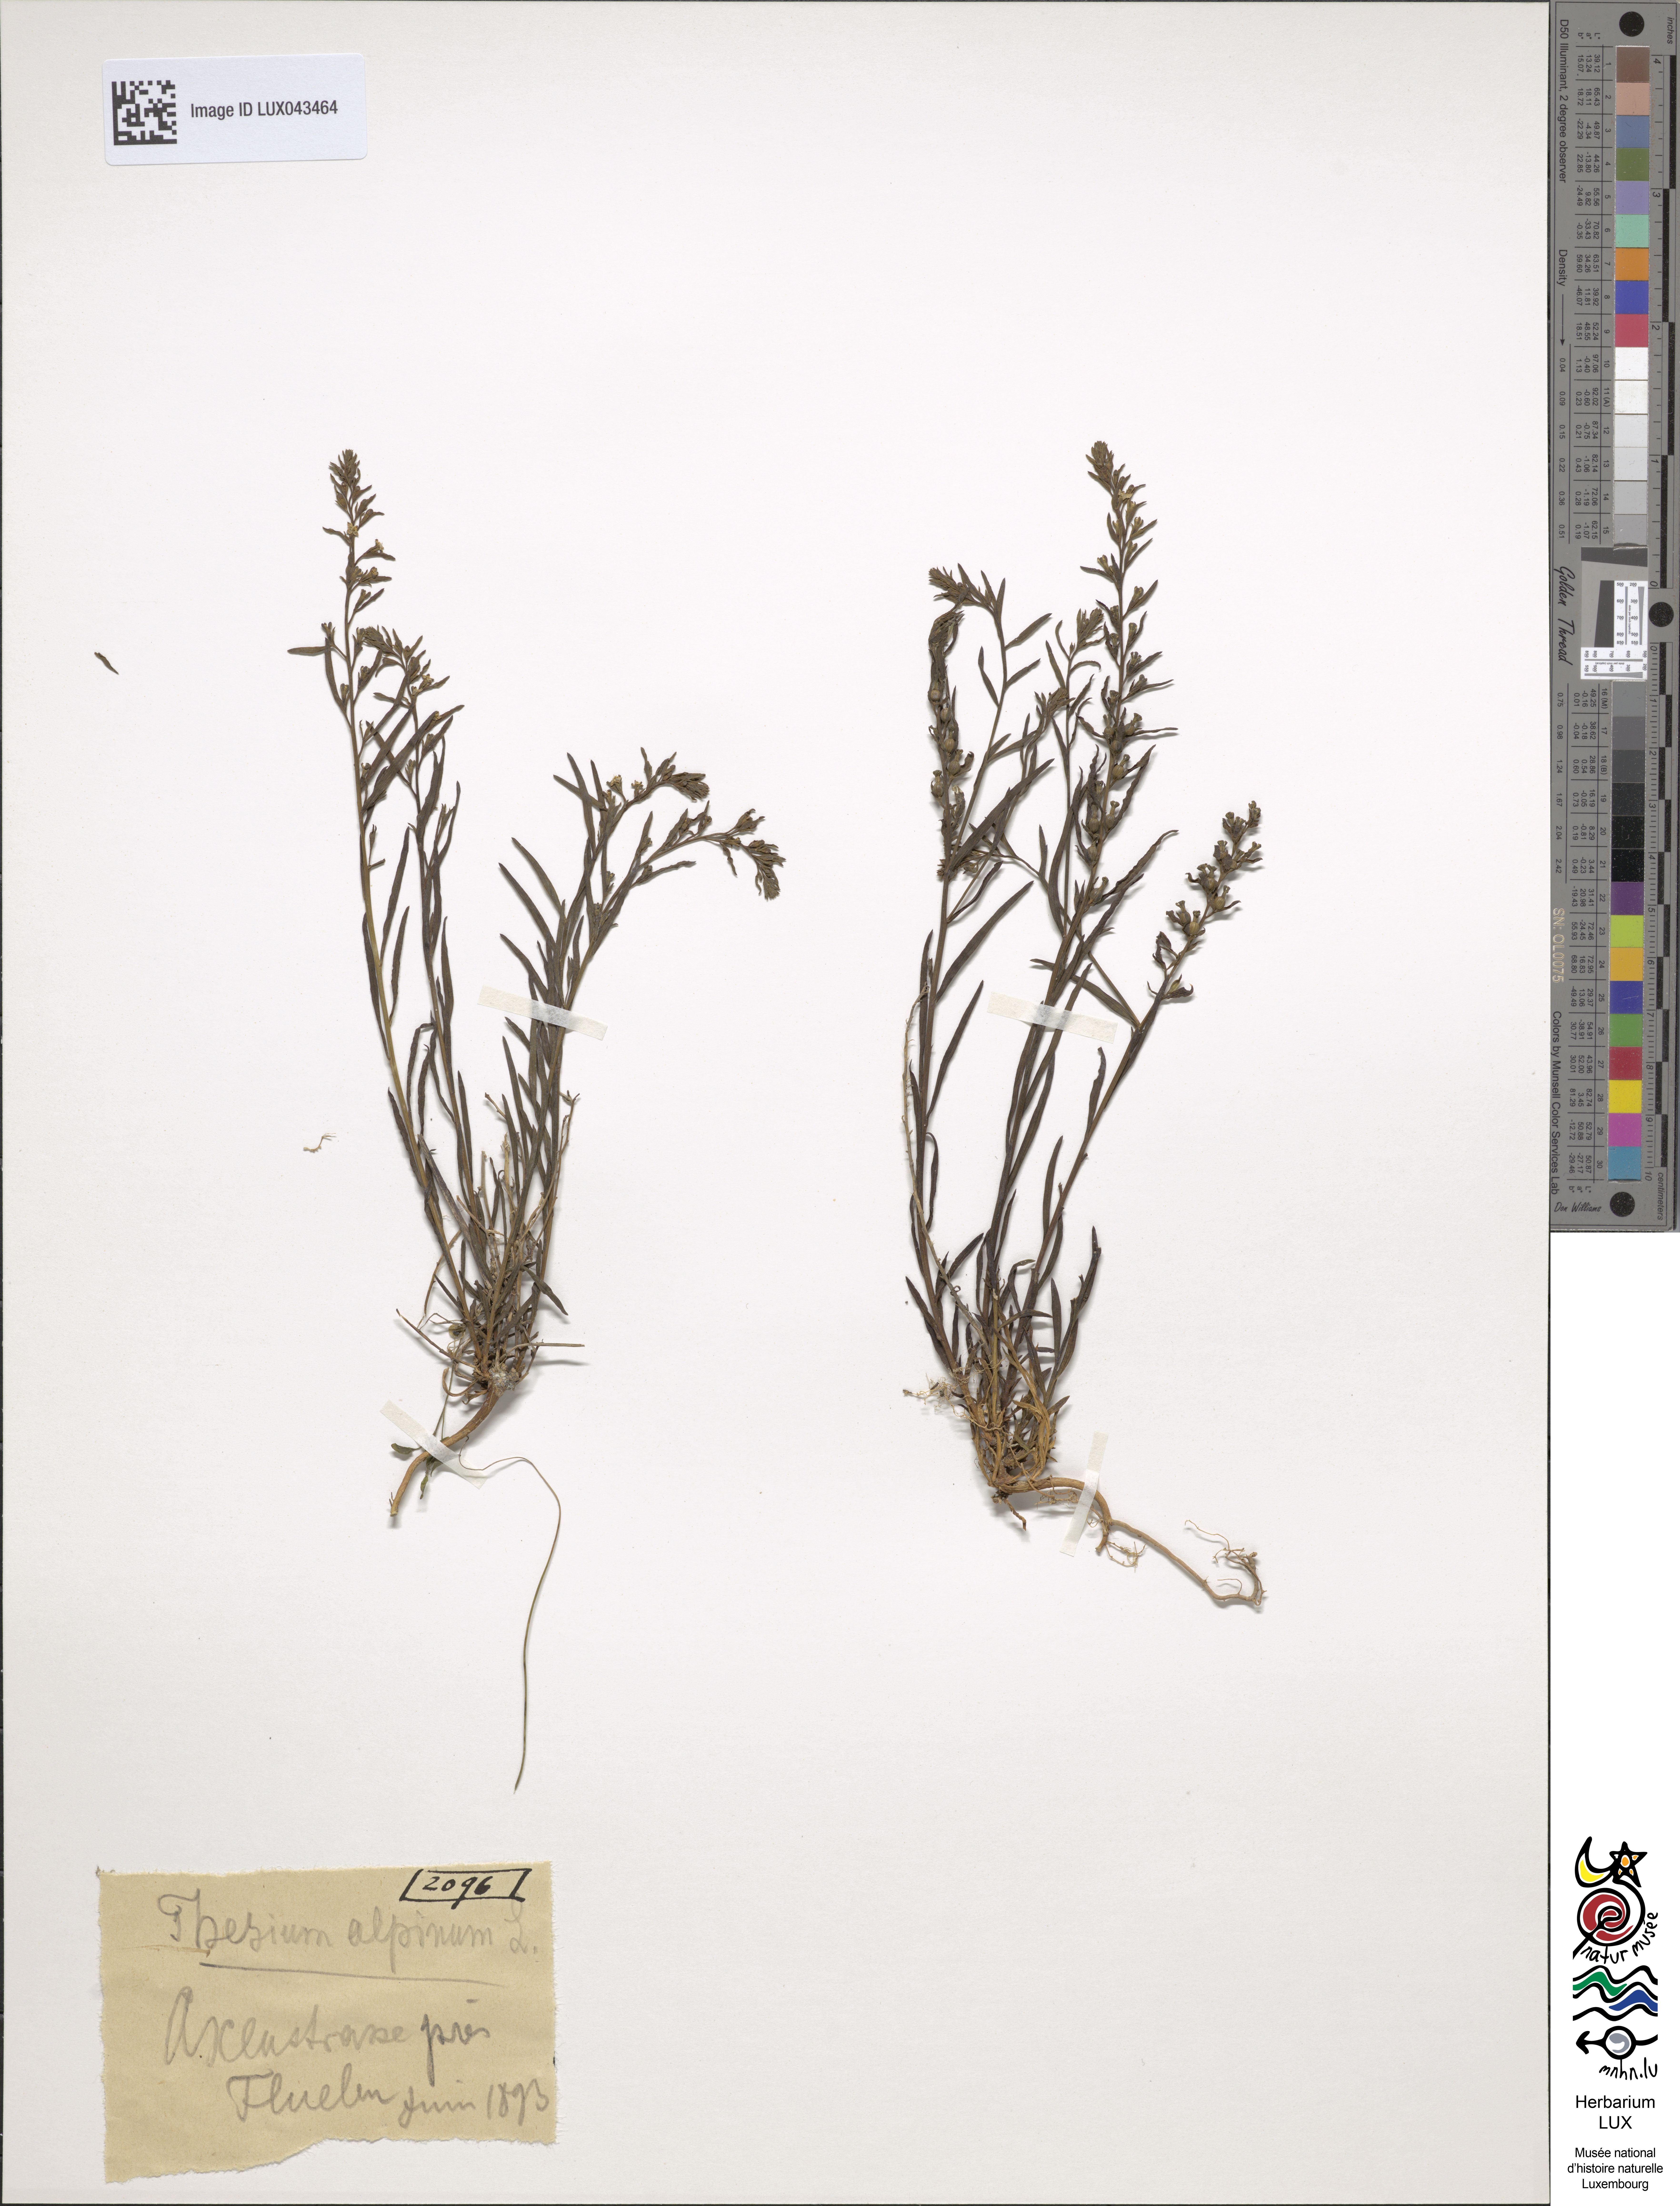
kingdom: Plantae
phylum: Tracheophyta
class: Magnoliopsida
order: Santalales
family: Thesiaceae
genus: Thesium
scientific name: Thesium alpinum
